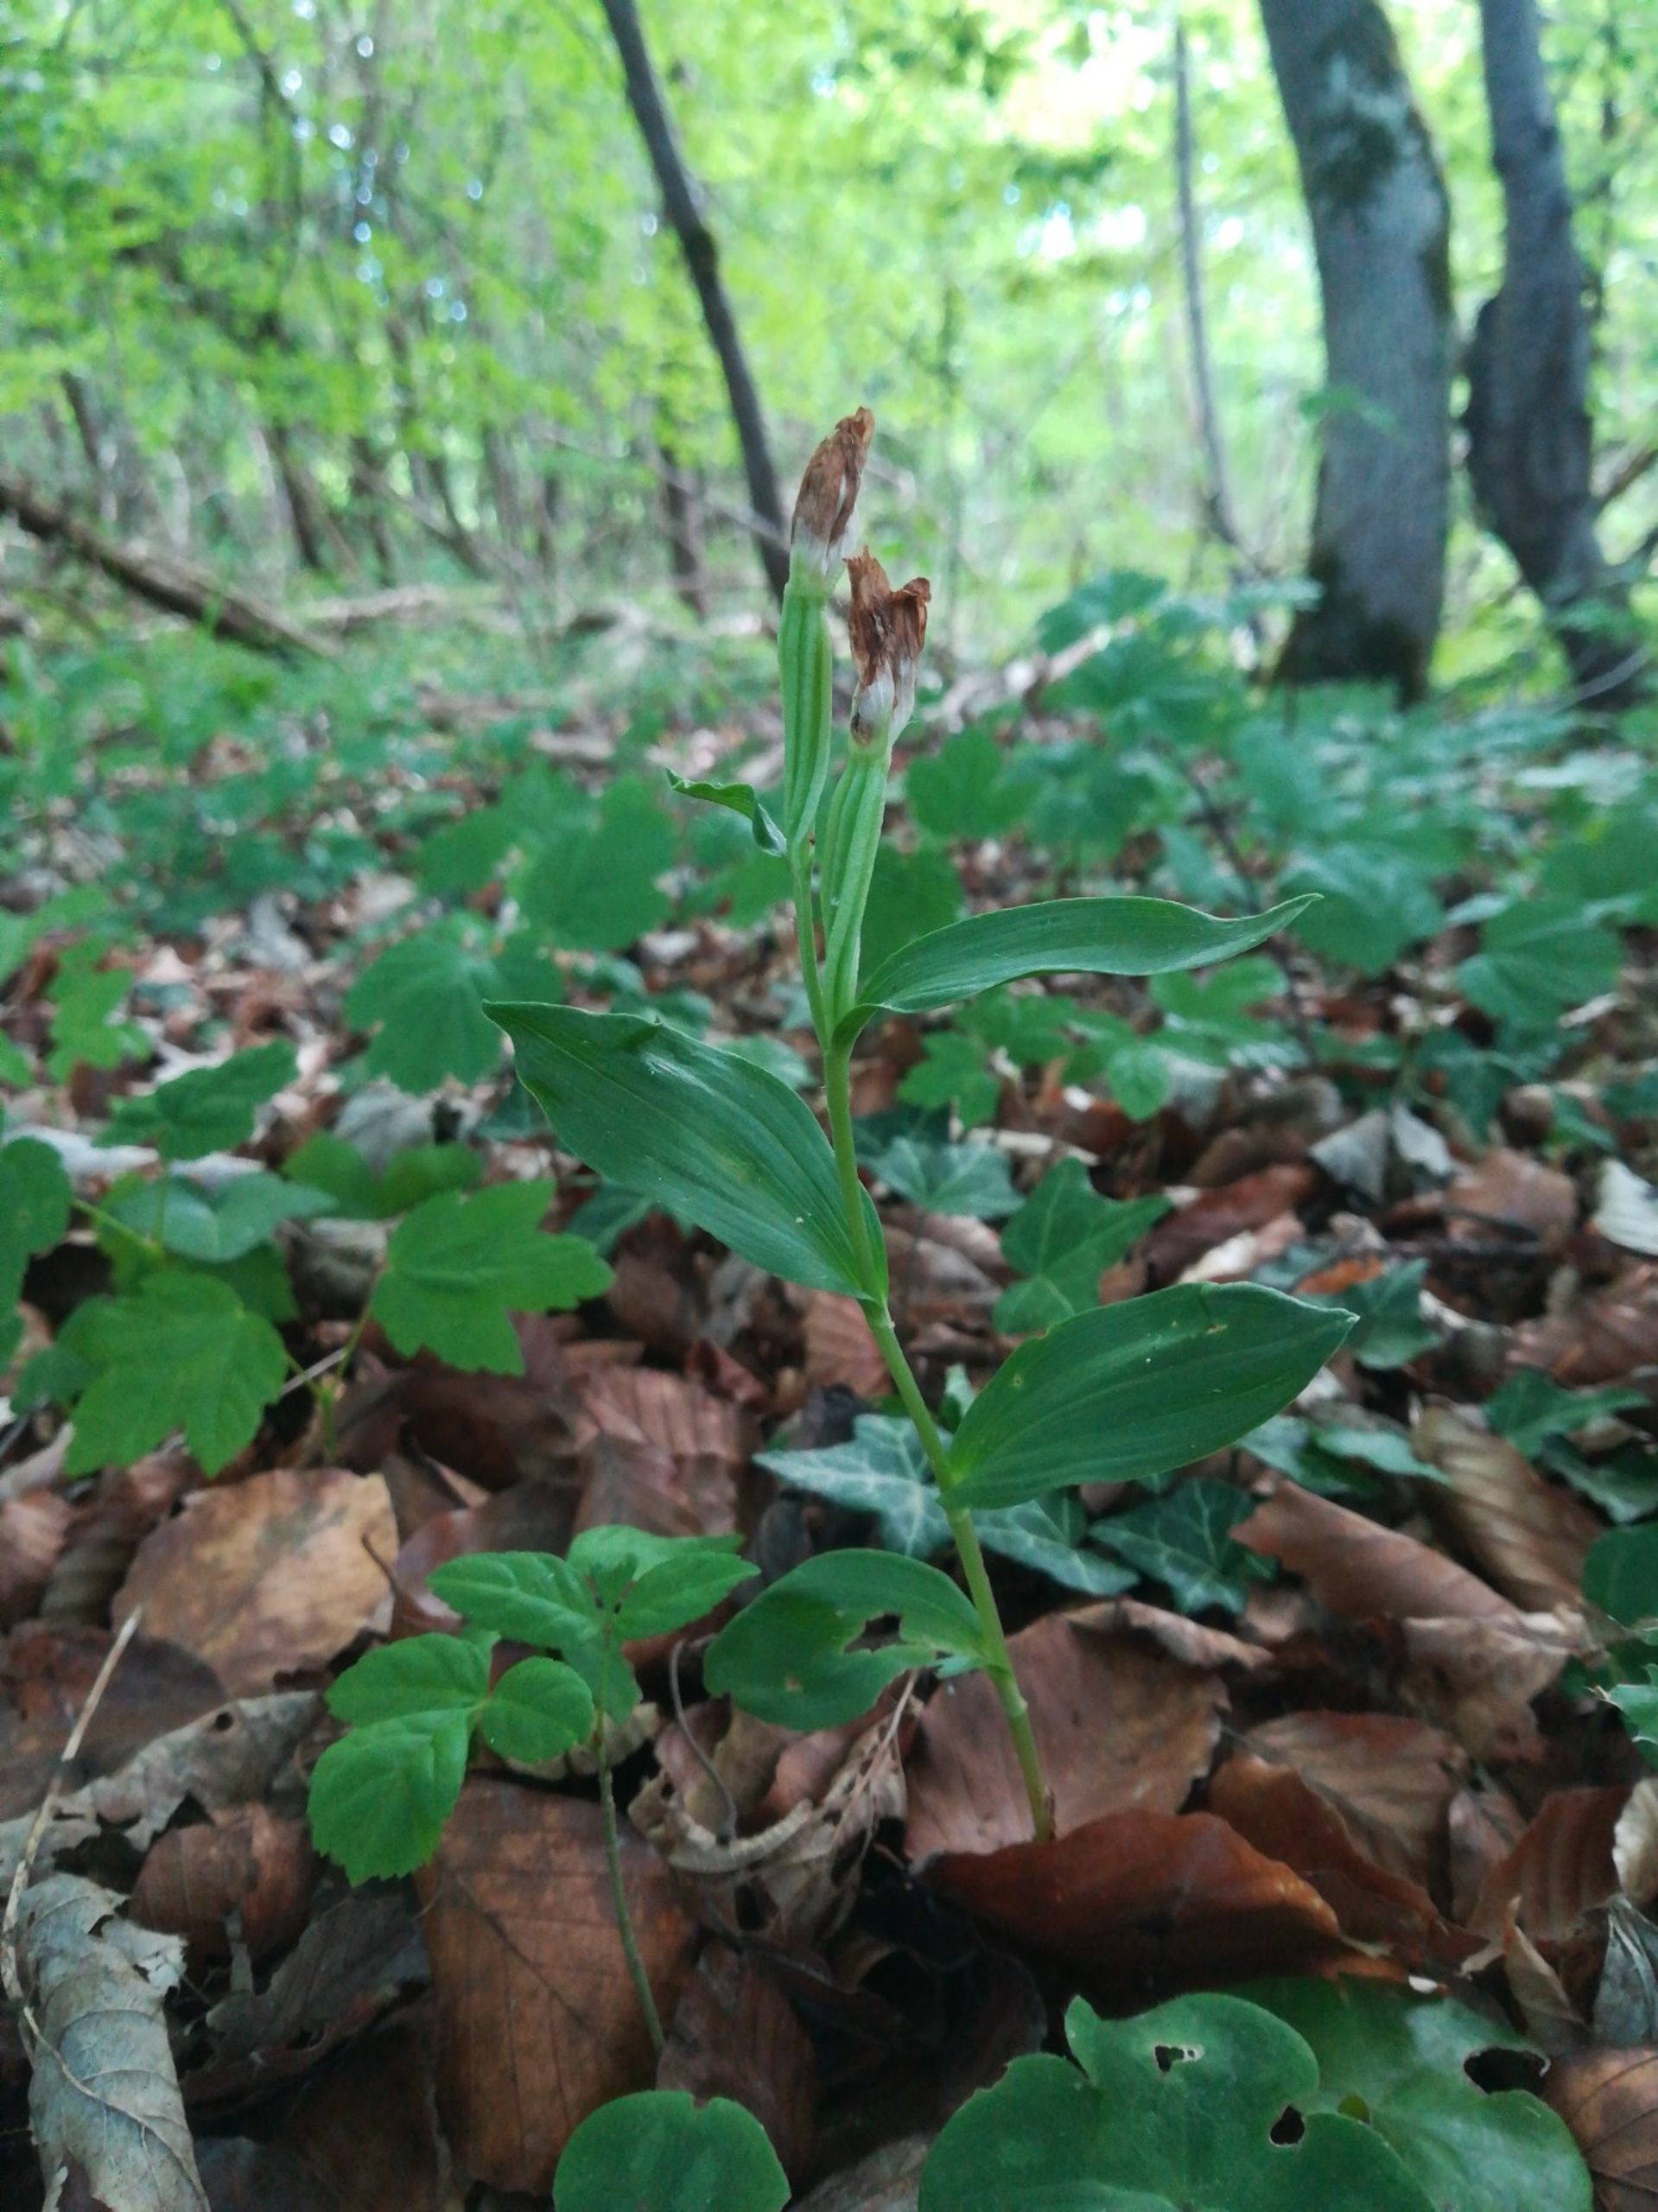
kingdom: Plantae
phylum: Tracheophyta
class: Liliopsida
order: Asparagales
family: Orchidaceae
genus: Cephalanthera
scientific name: Cephalanthera damasonium
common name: Hvidgul skovlilje
